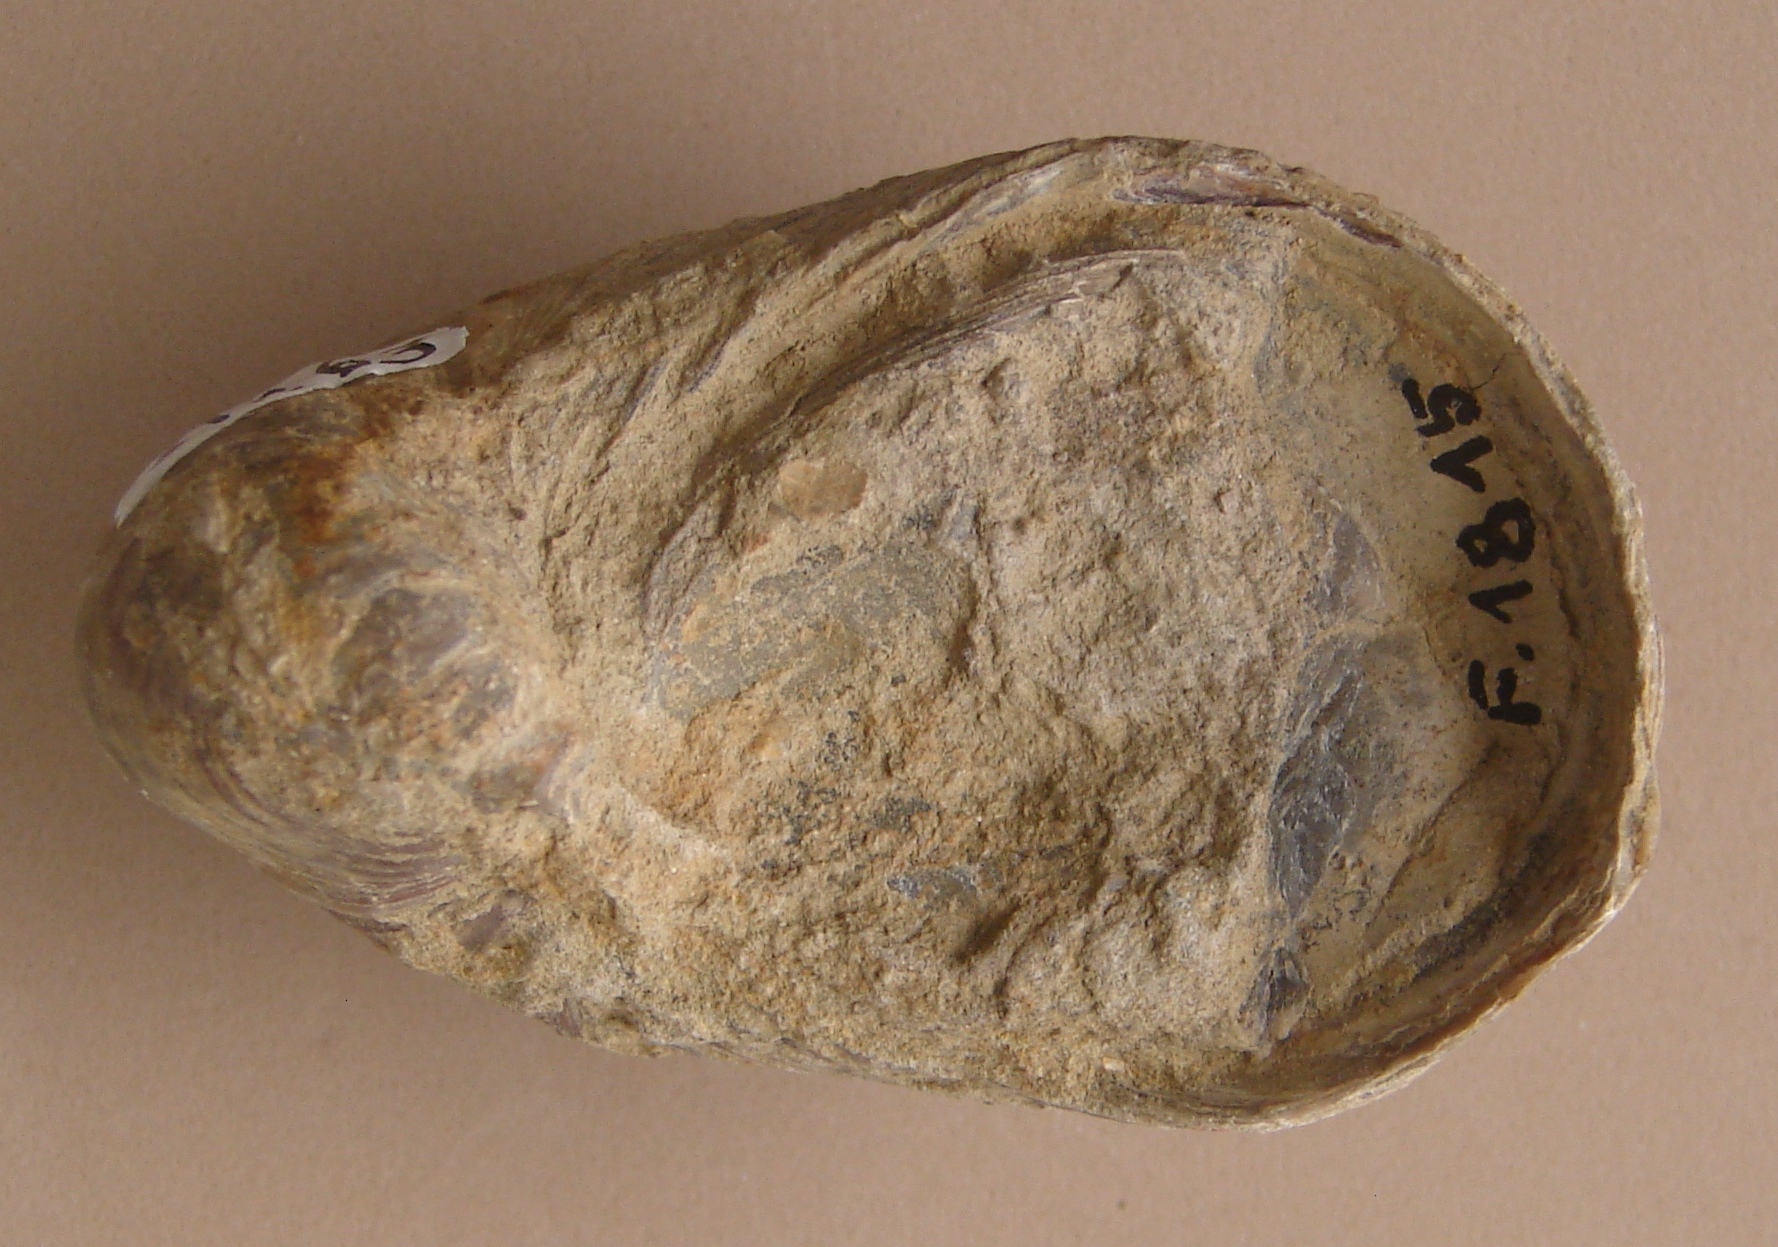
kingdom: Animalia
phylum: Mollusca
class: Bivalvia
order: Ostreida
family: Gryphaeidae
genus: Gryphaea
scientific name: Gryphaea arcuata
